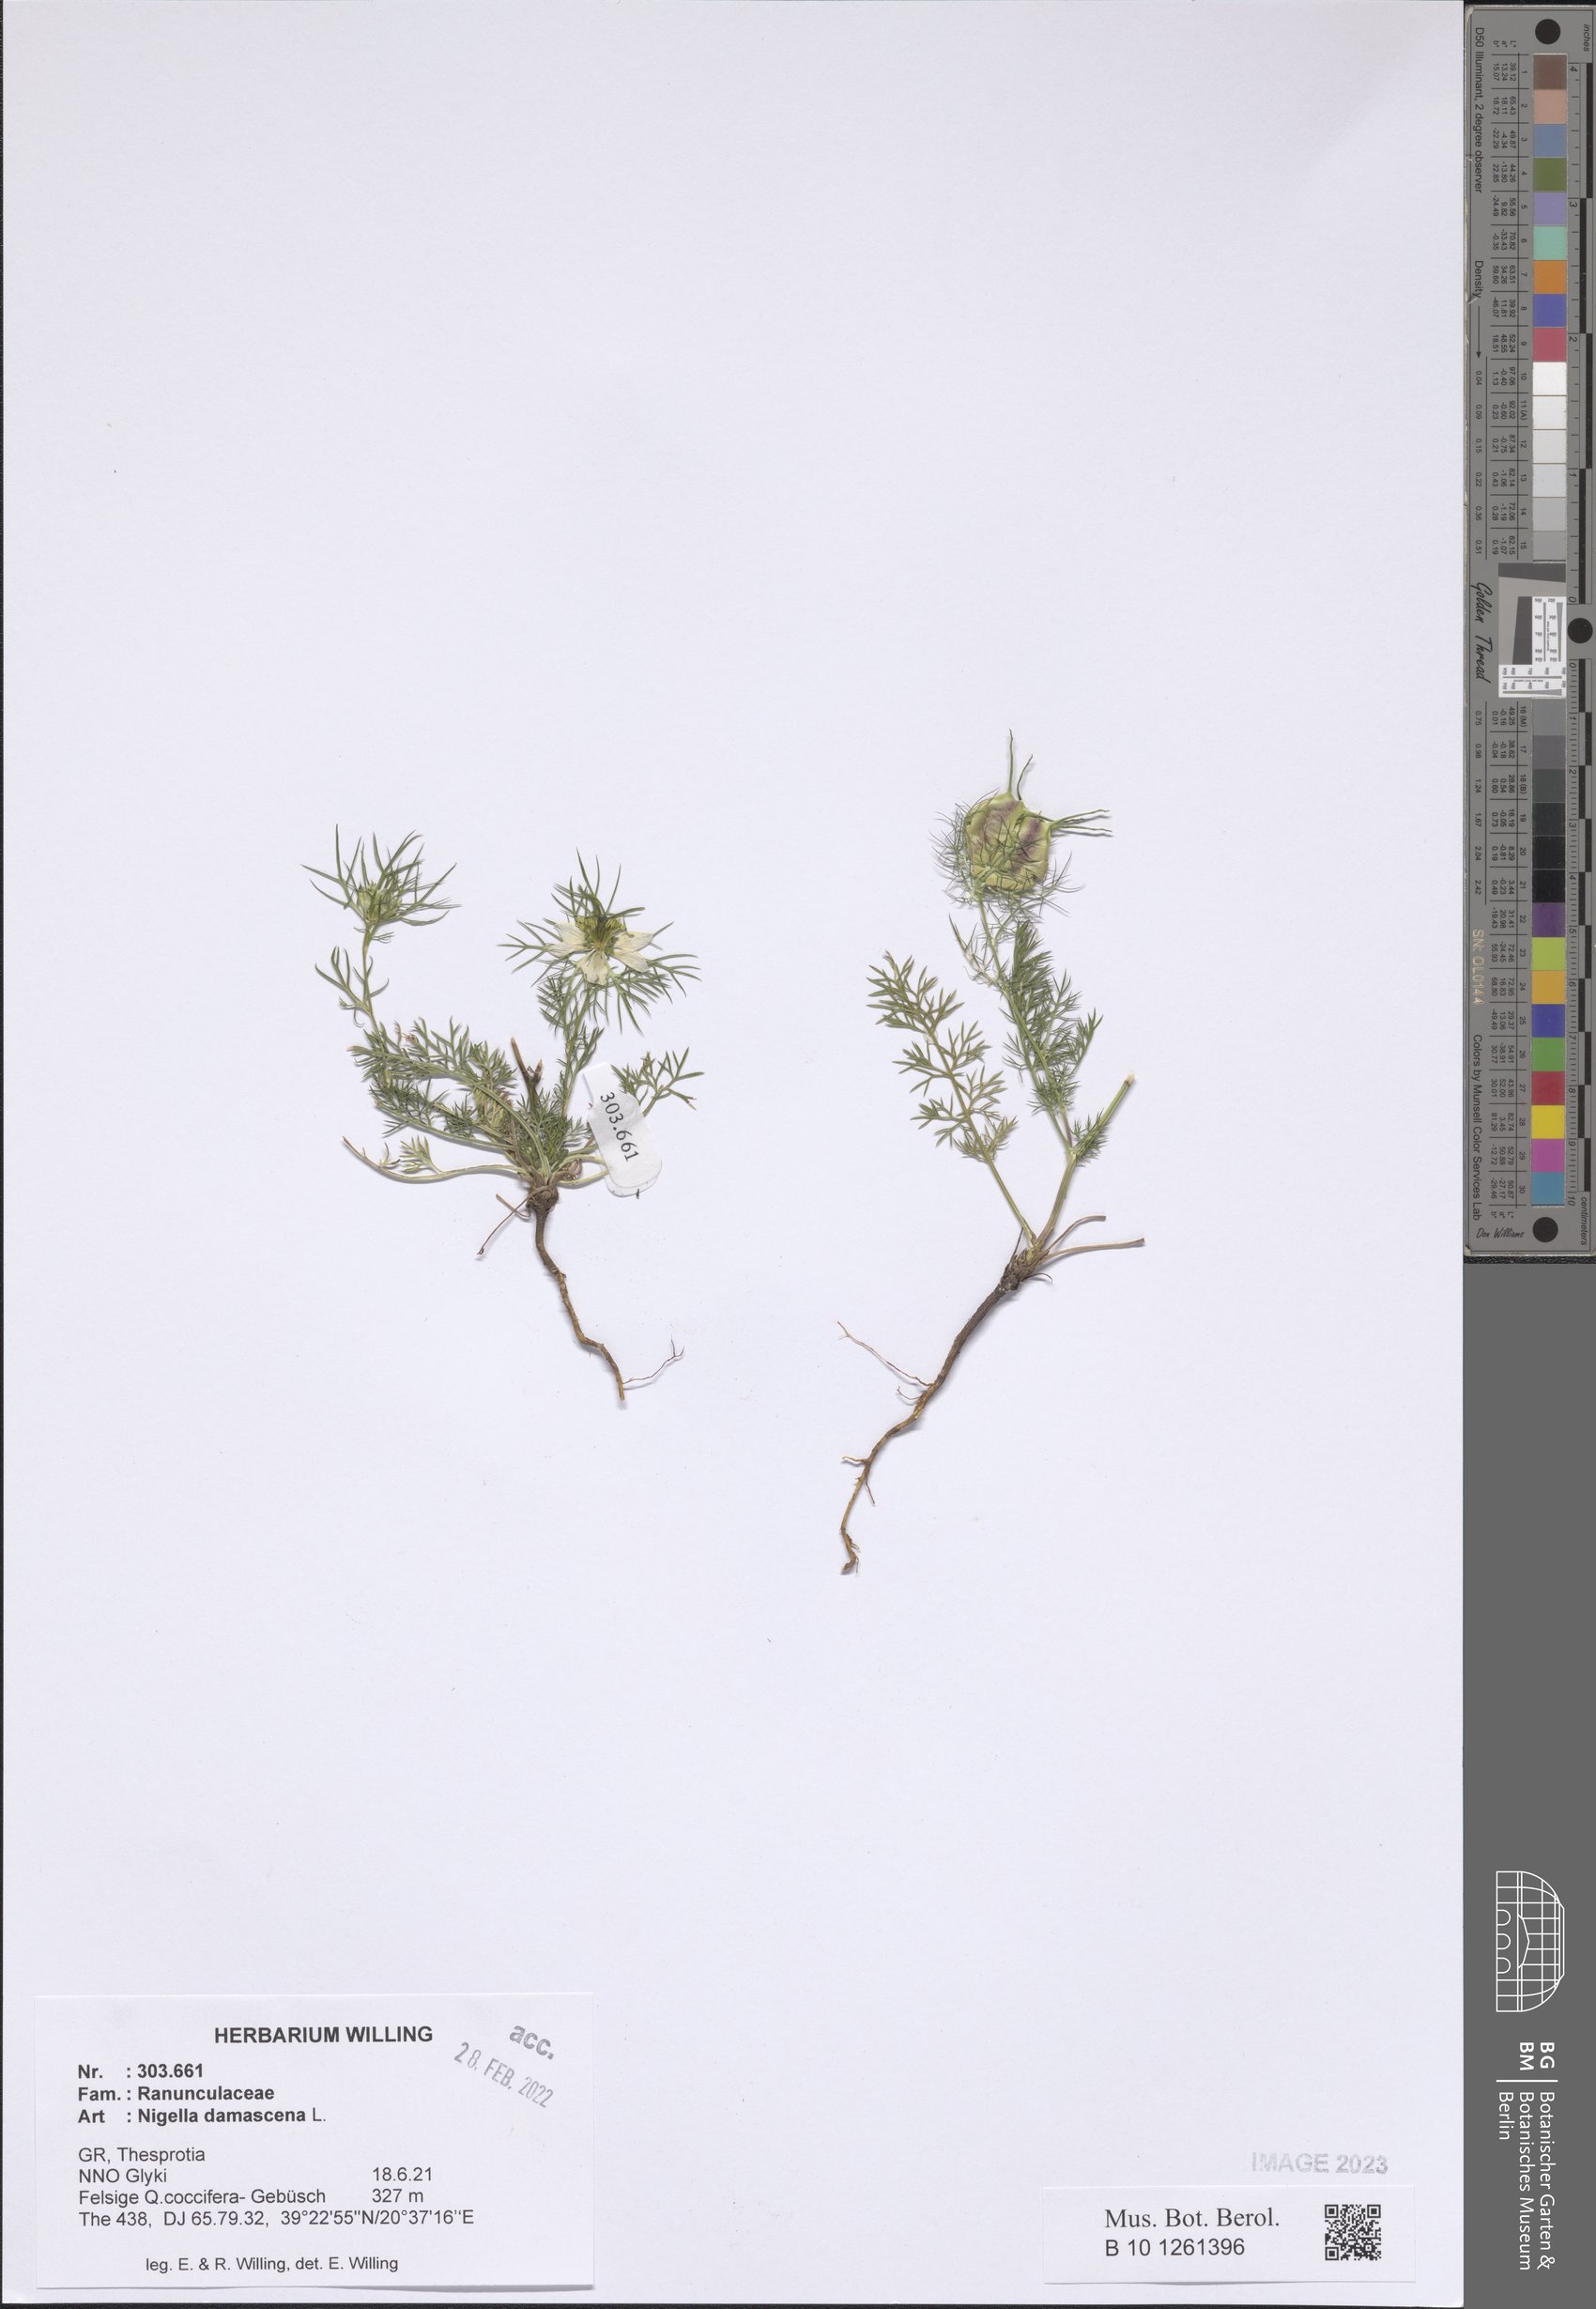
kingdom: Plantae
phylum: Tracheophyta
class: Magnoliopsida
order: Ranunculales
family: Ranunculaceae
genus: Nigella
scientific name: Nigella damascena
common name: Love-in-a-mist
